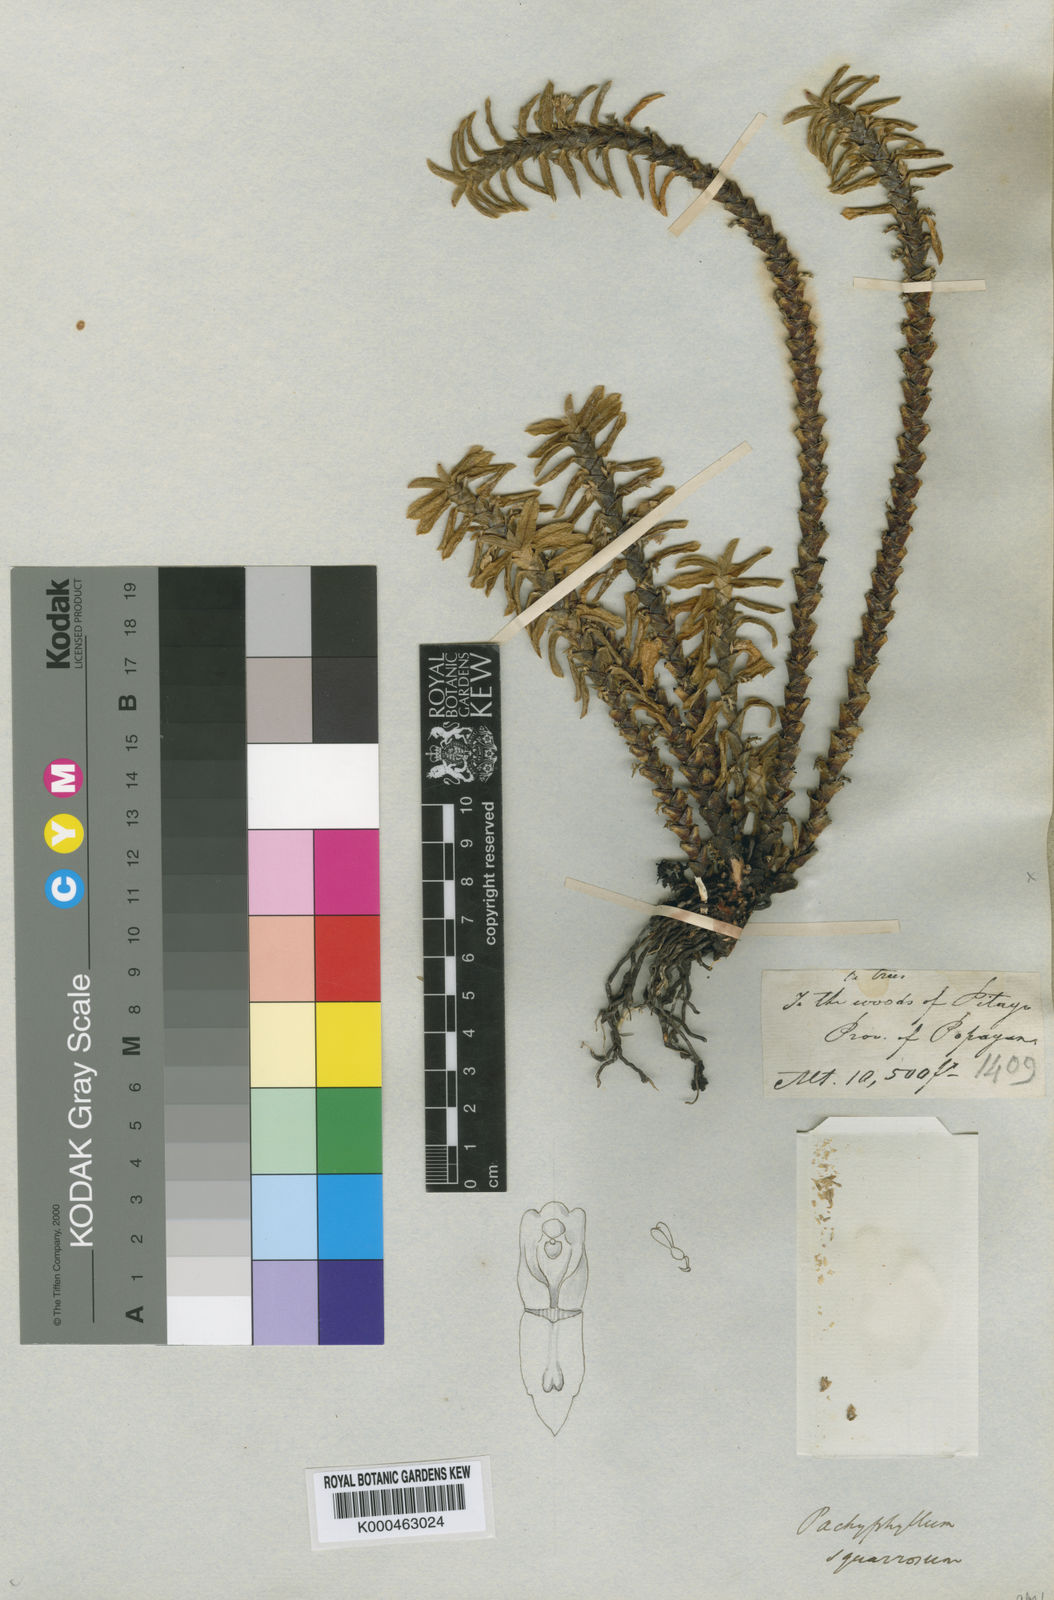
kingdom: Plantae
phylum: Tracheophyta
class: Liliopsida
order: Asparagales
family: Orchidaceae
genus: Fernandezia
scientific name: Fernandezia squarrosa
